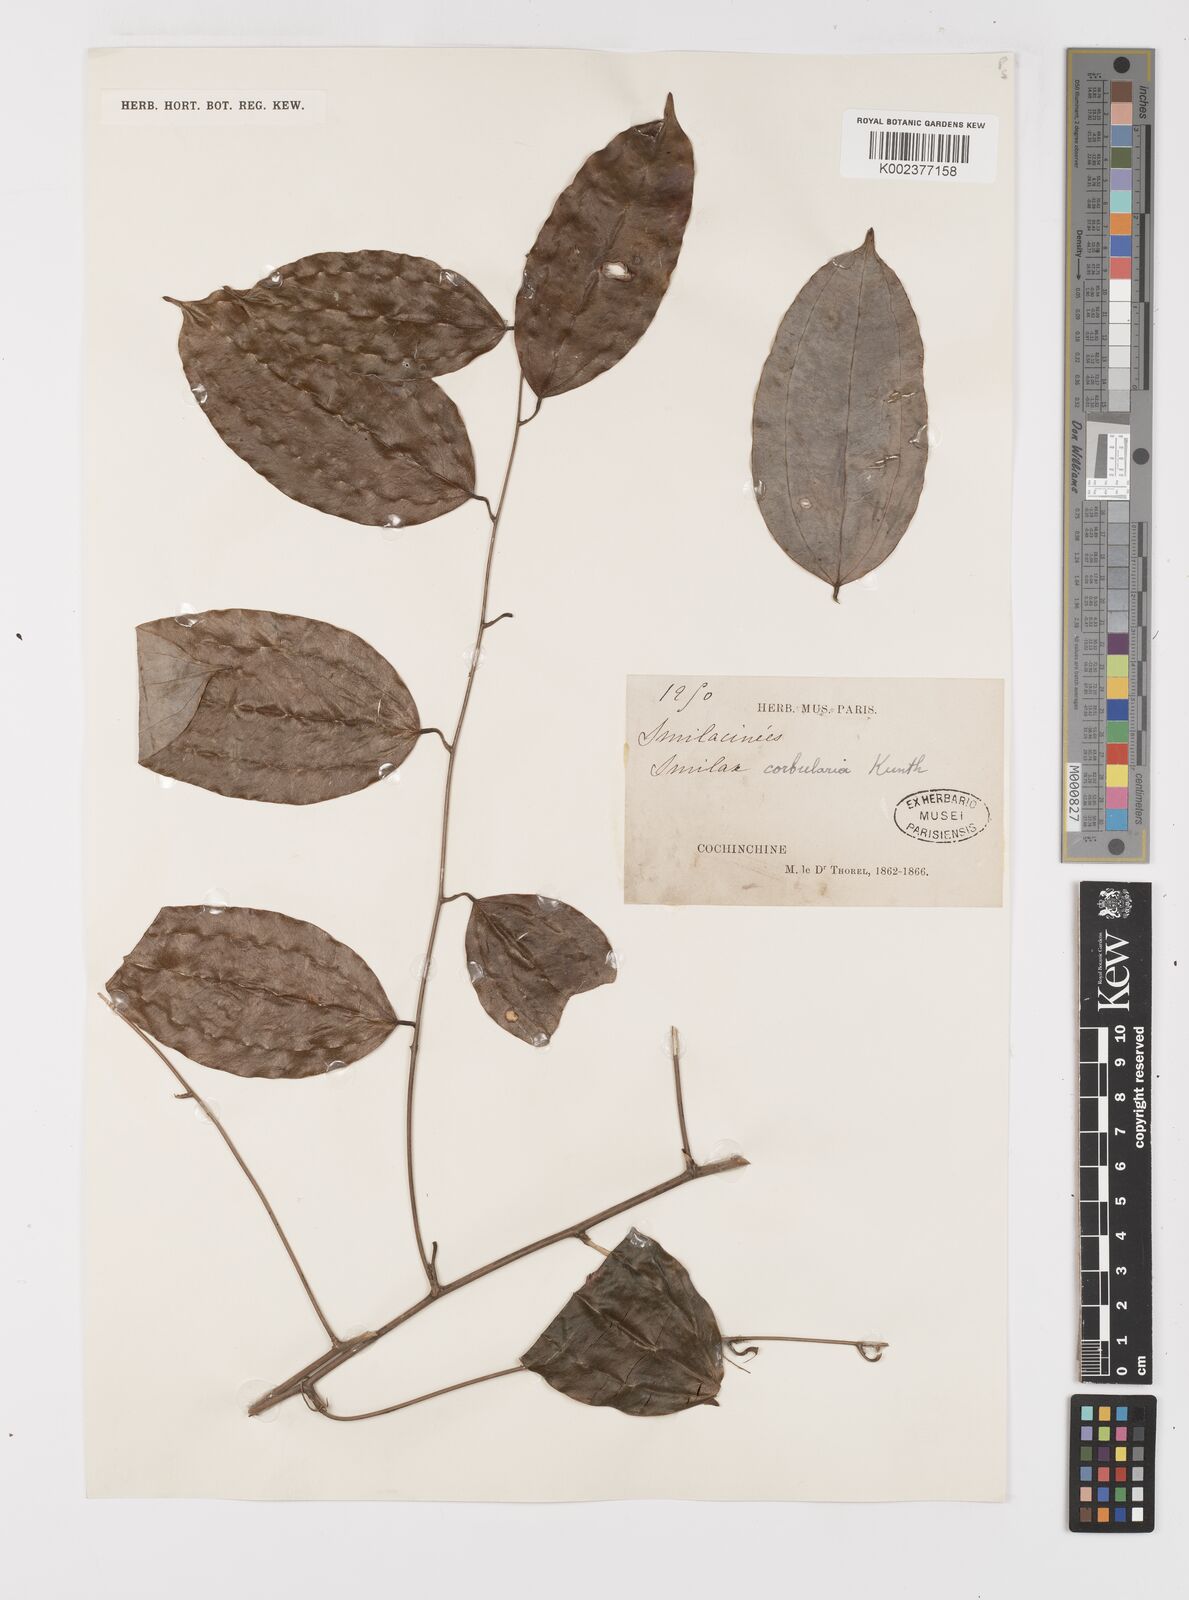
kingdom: Plantae
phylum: Tracheophyta
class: Liliopsida
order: Liliales
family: Smilacaceae
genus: Smilax
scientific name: Smilax corbularia
